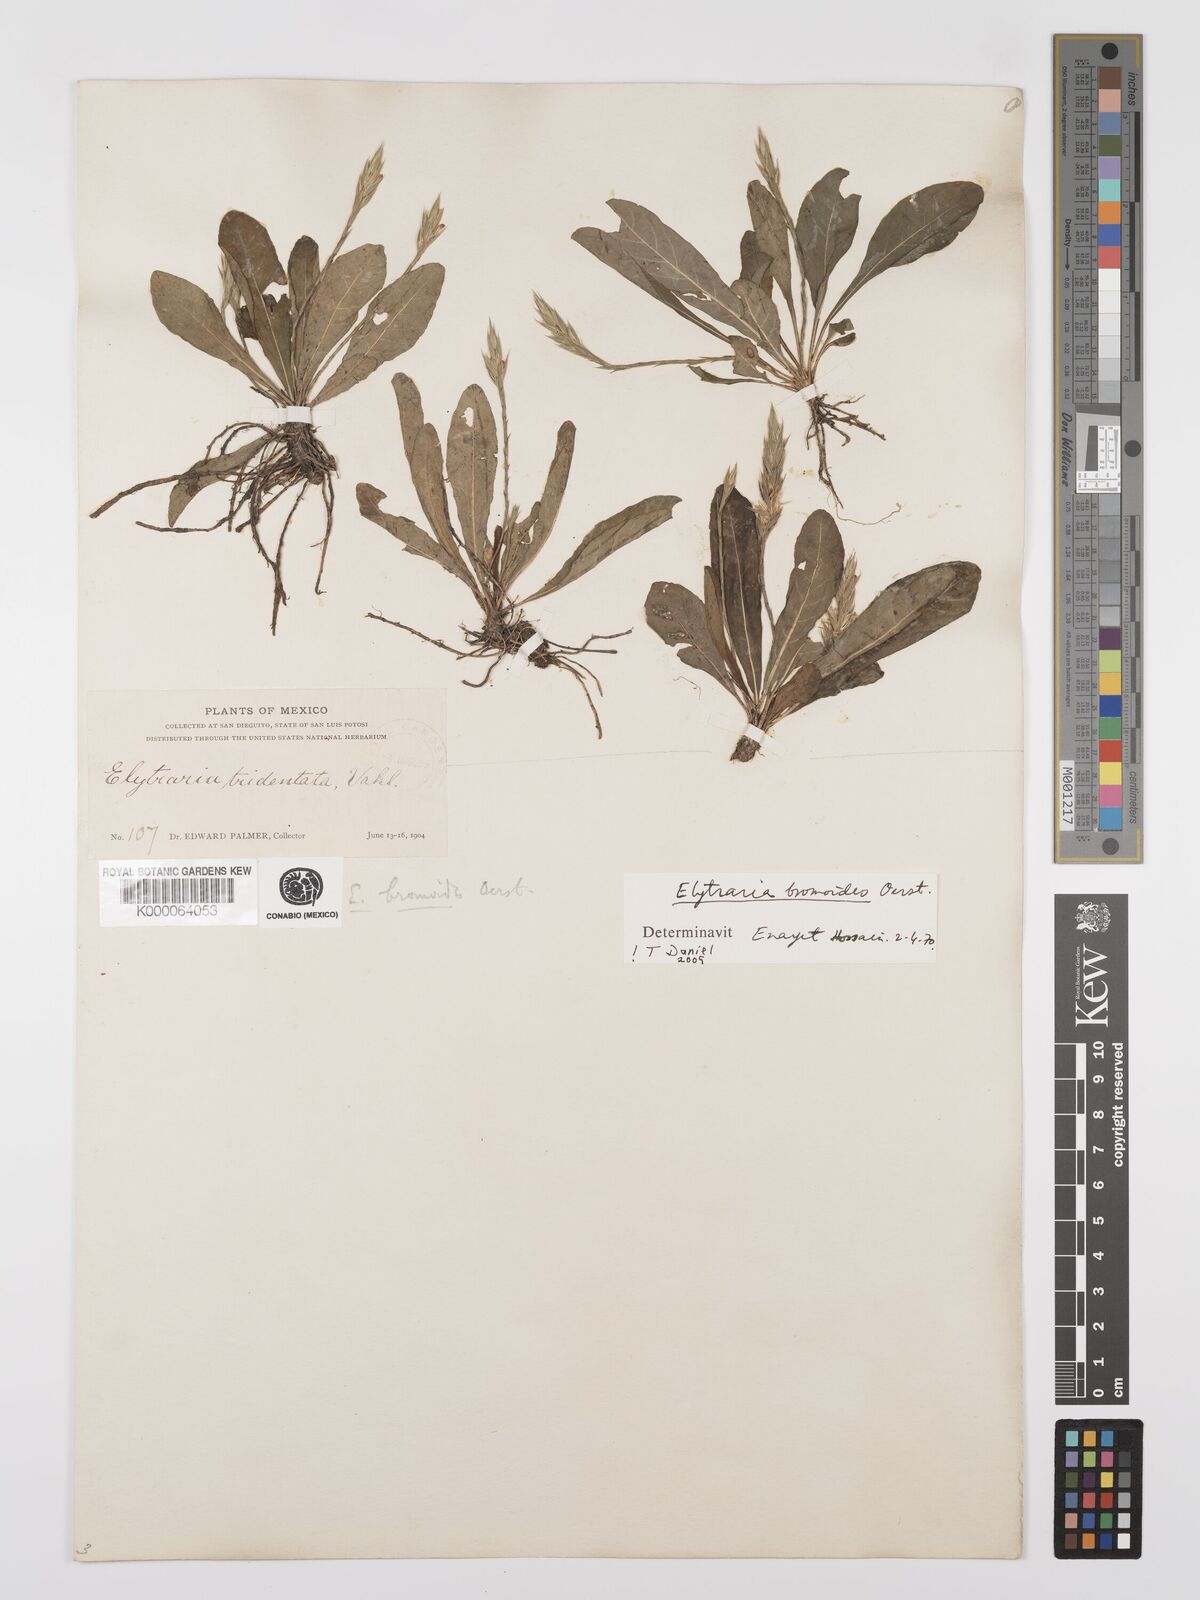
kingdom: Plantae
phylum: Tracheophyta
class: Magnoliopsida
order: Lamiales
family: Acanthaceae
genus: Elytraria
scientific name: Elytraria bromoides
